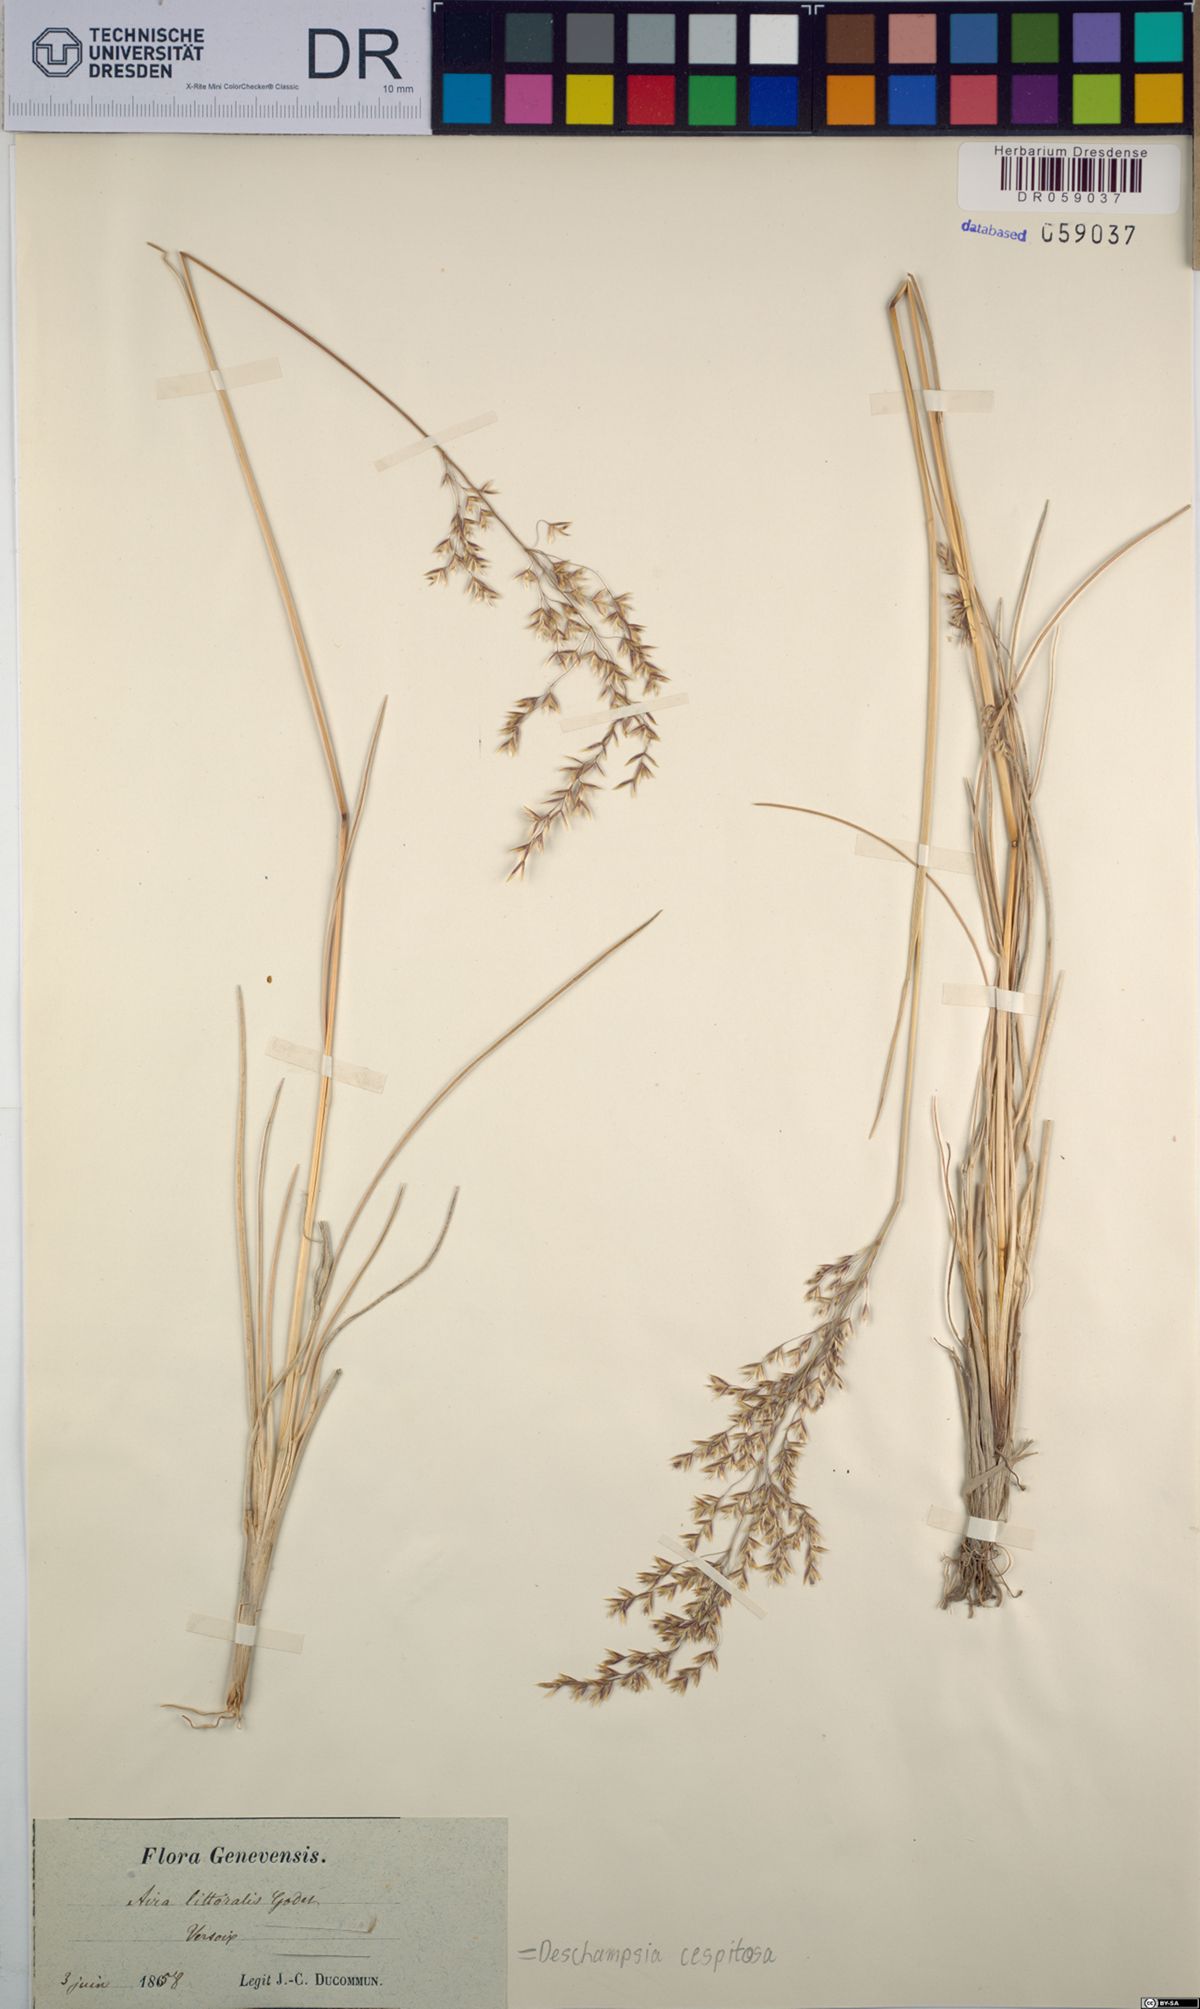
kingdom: Plantae
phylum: Tracheophyta
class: Liliopsida
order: Poales
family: Poaceae
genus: Deschampsia
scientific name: Deschampsia cespitosa
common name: Tufted hair-grass
